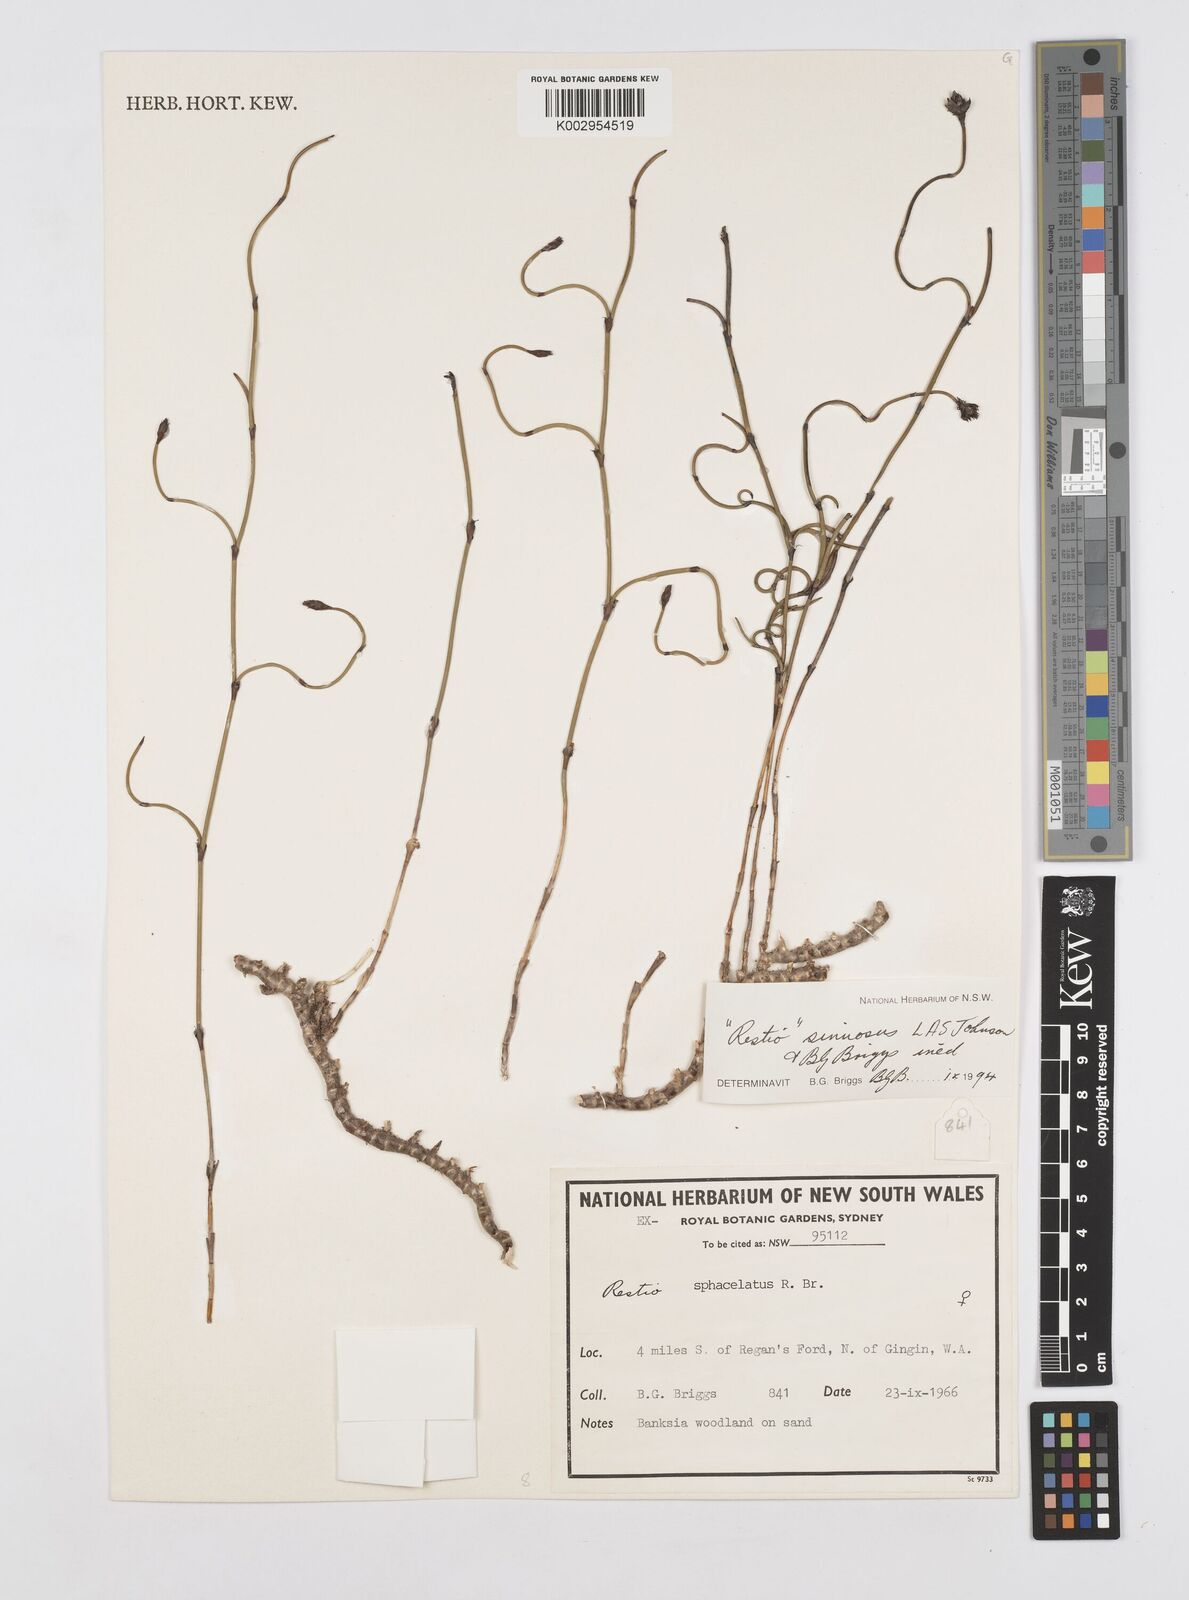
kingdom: Plantae
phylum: Tracheophyta
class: Liliopsida
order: Poales
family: Restionaceae
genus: Chordifex
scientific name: Chordifex sinuosus
